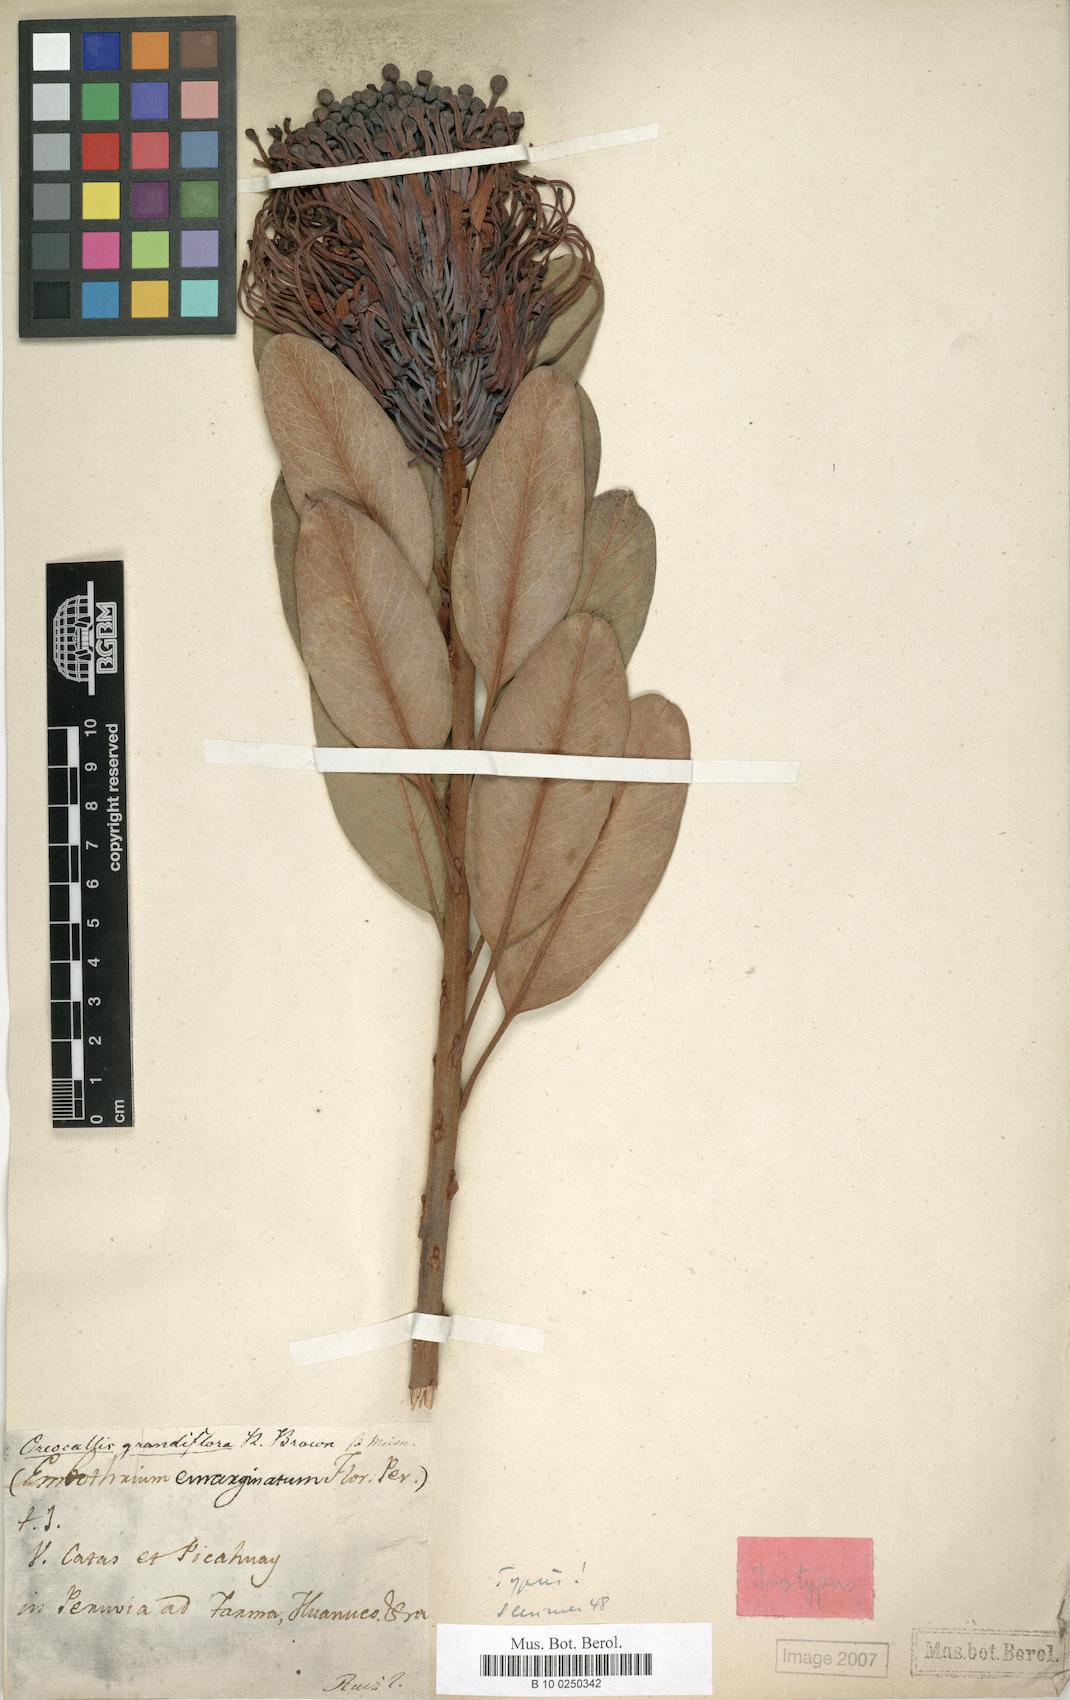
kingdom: Plantae
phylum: Tracheophyta
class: Magnoliopsida
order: Proteales
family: Proteaceae
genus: Oreocallis
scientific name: Oreocallis grandiflora
